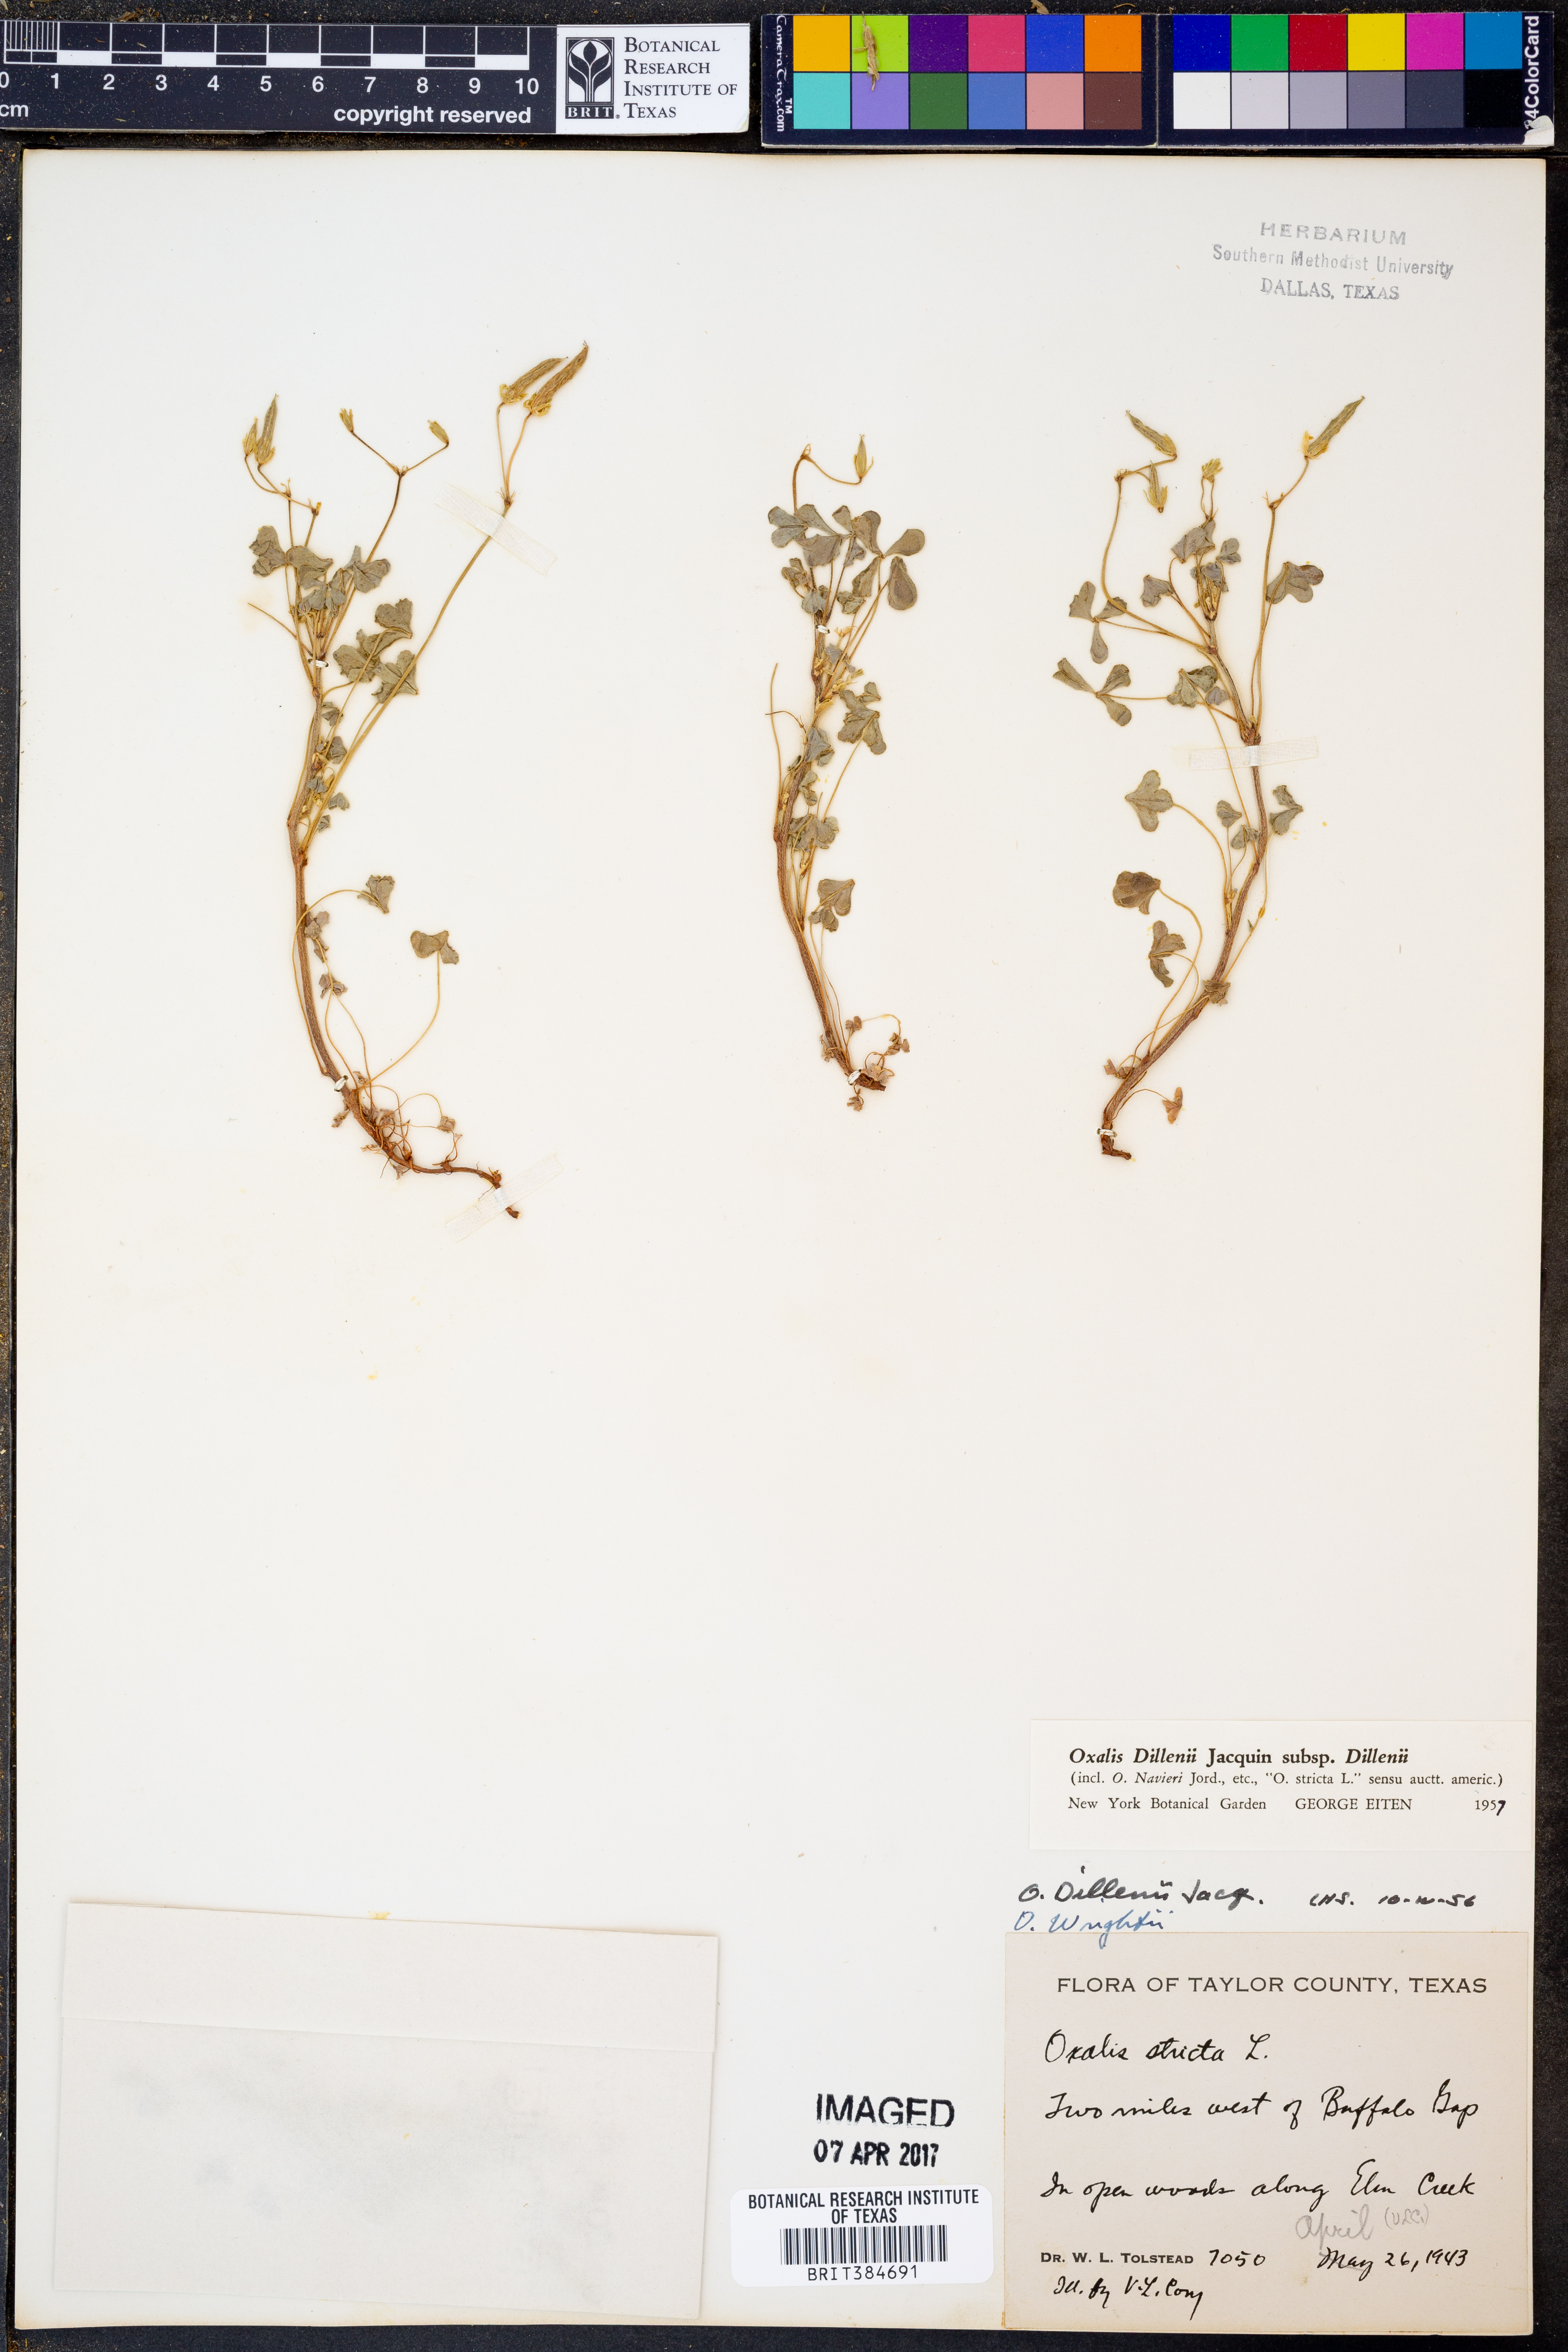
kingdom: Plantae
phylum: Tracheophyta
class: Magnoliopsida
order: Oxalidales
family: Oxalidaceae
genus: Oxalis
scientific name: Oxalis dillenii
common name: Sussex yellow-sorrel
